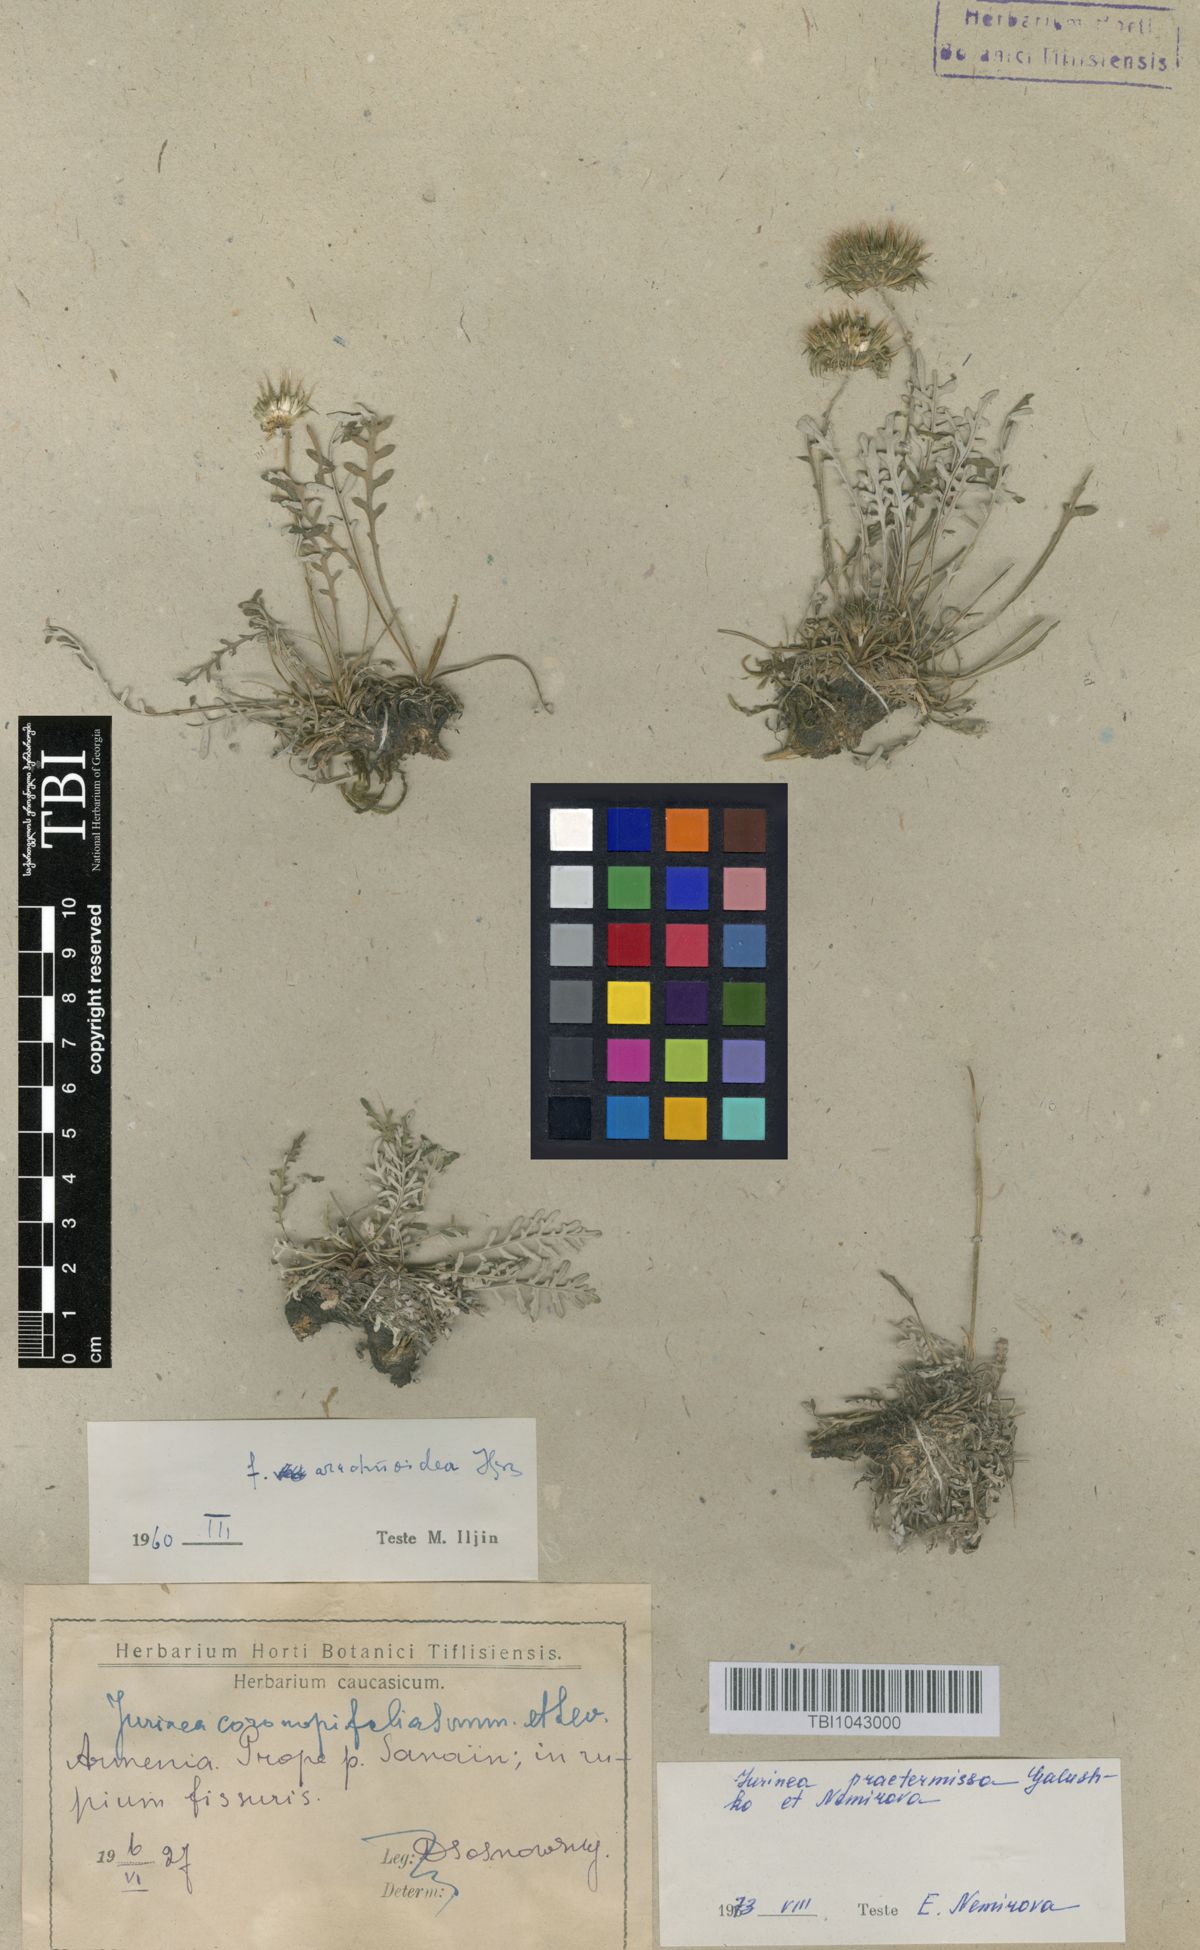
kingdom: Plantae
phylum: Tracheophyta
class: Magnoliopsida
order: Asterales
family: Asteraceae
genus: Jurinea
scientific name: Jurinea praetermissa
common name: Neglected jurinea
